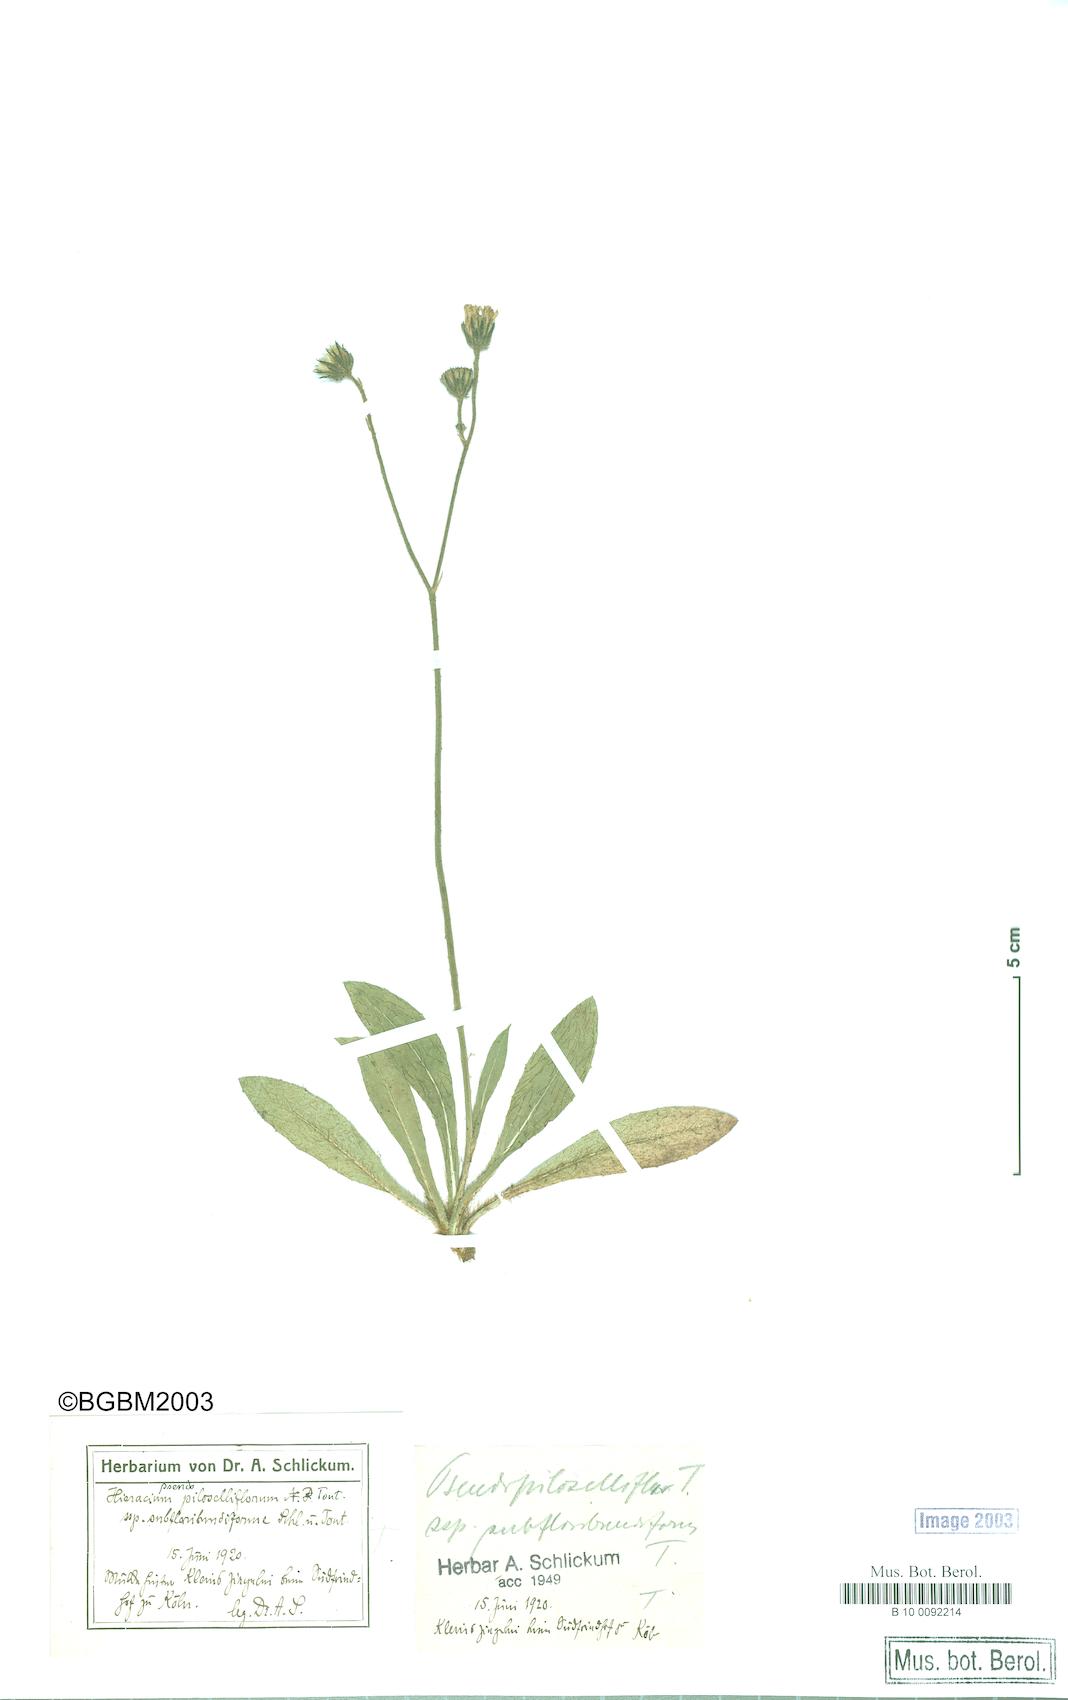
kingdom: Plantae
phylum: Tracheophyta
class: Magnoliopsida
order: Asterales
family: Asteraceae
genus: Pilosella
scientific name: Pilosella piloselliflora
